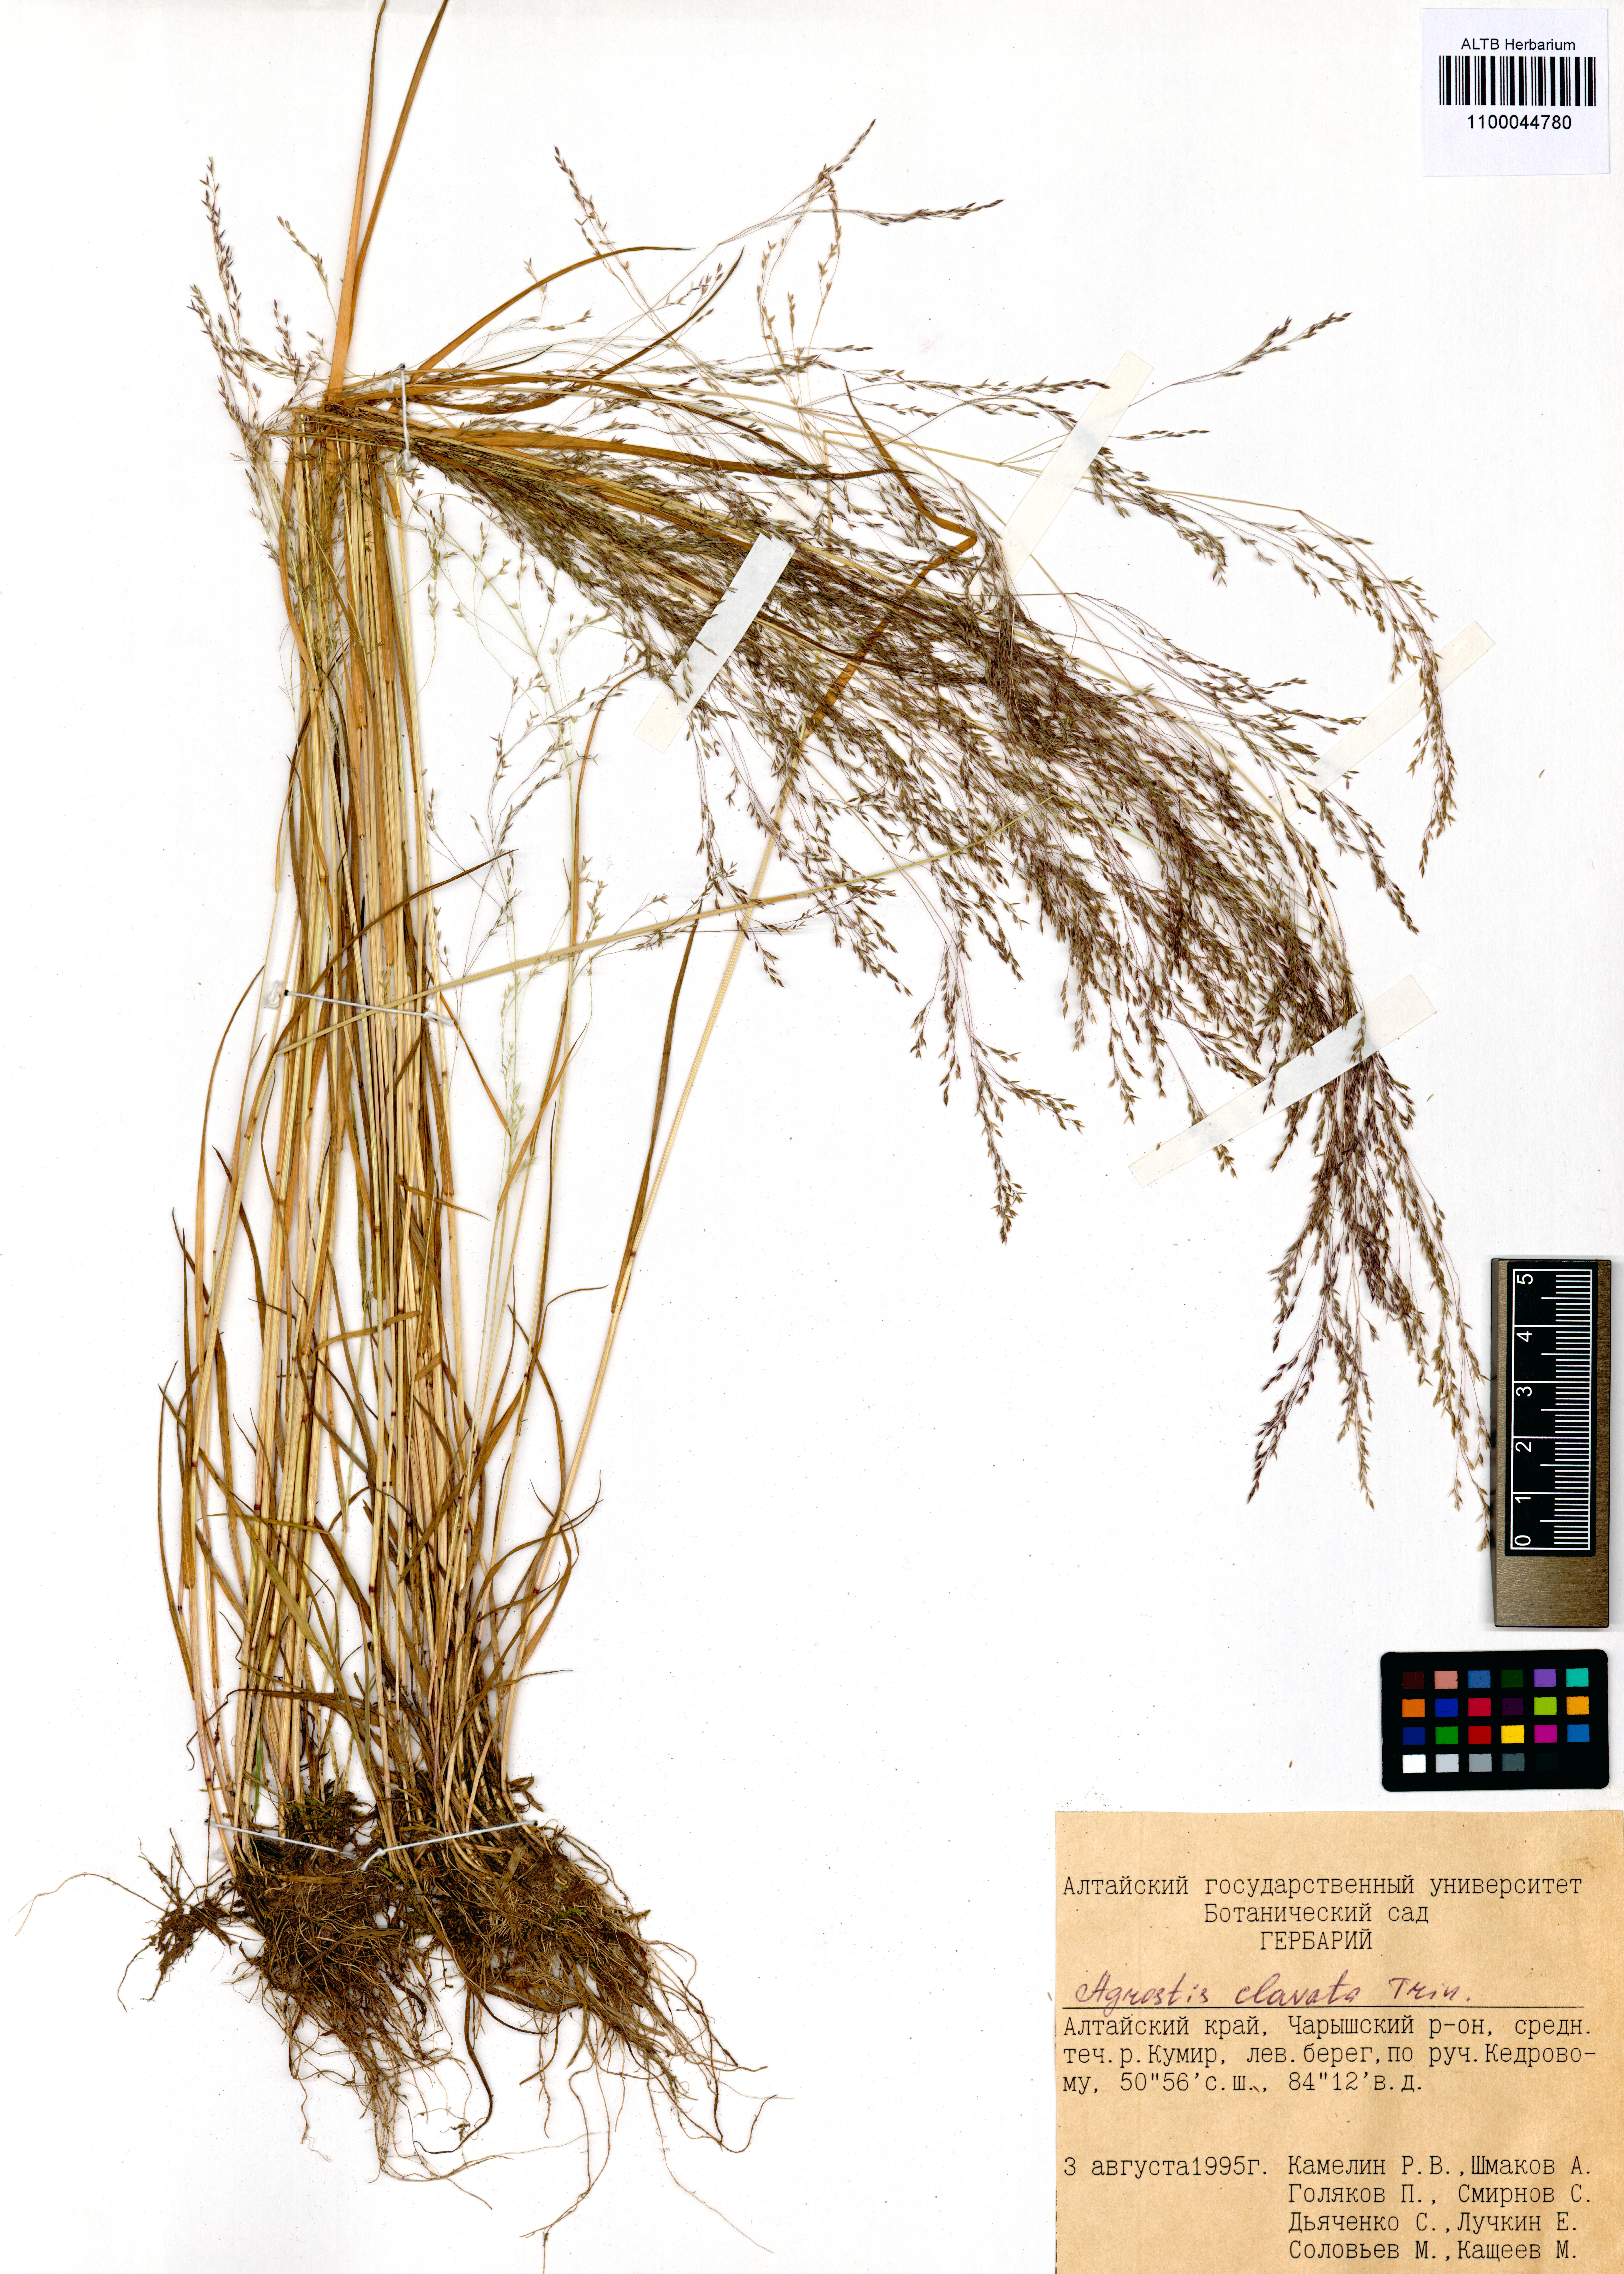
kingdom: Plantae
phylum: Tracheophyta
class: Liliopsida
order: Poales
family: Poaceae
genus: Agrostis
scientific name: Agrostis clavata
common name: Clavate bent
